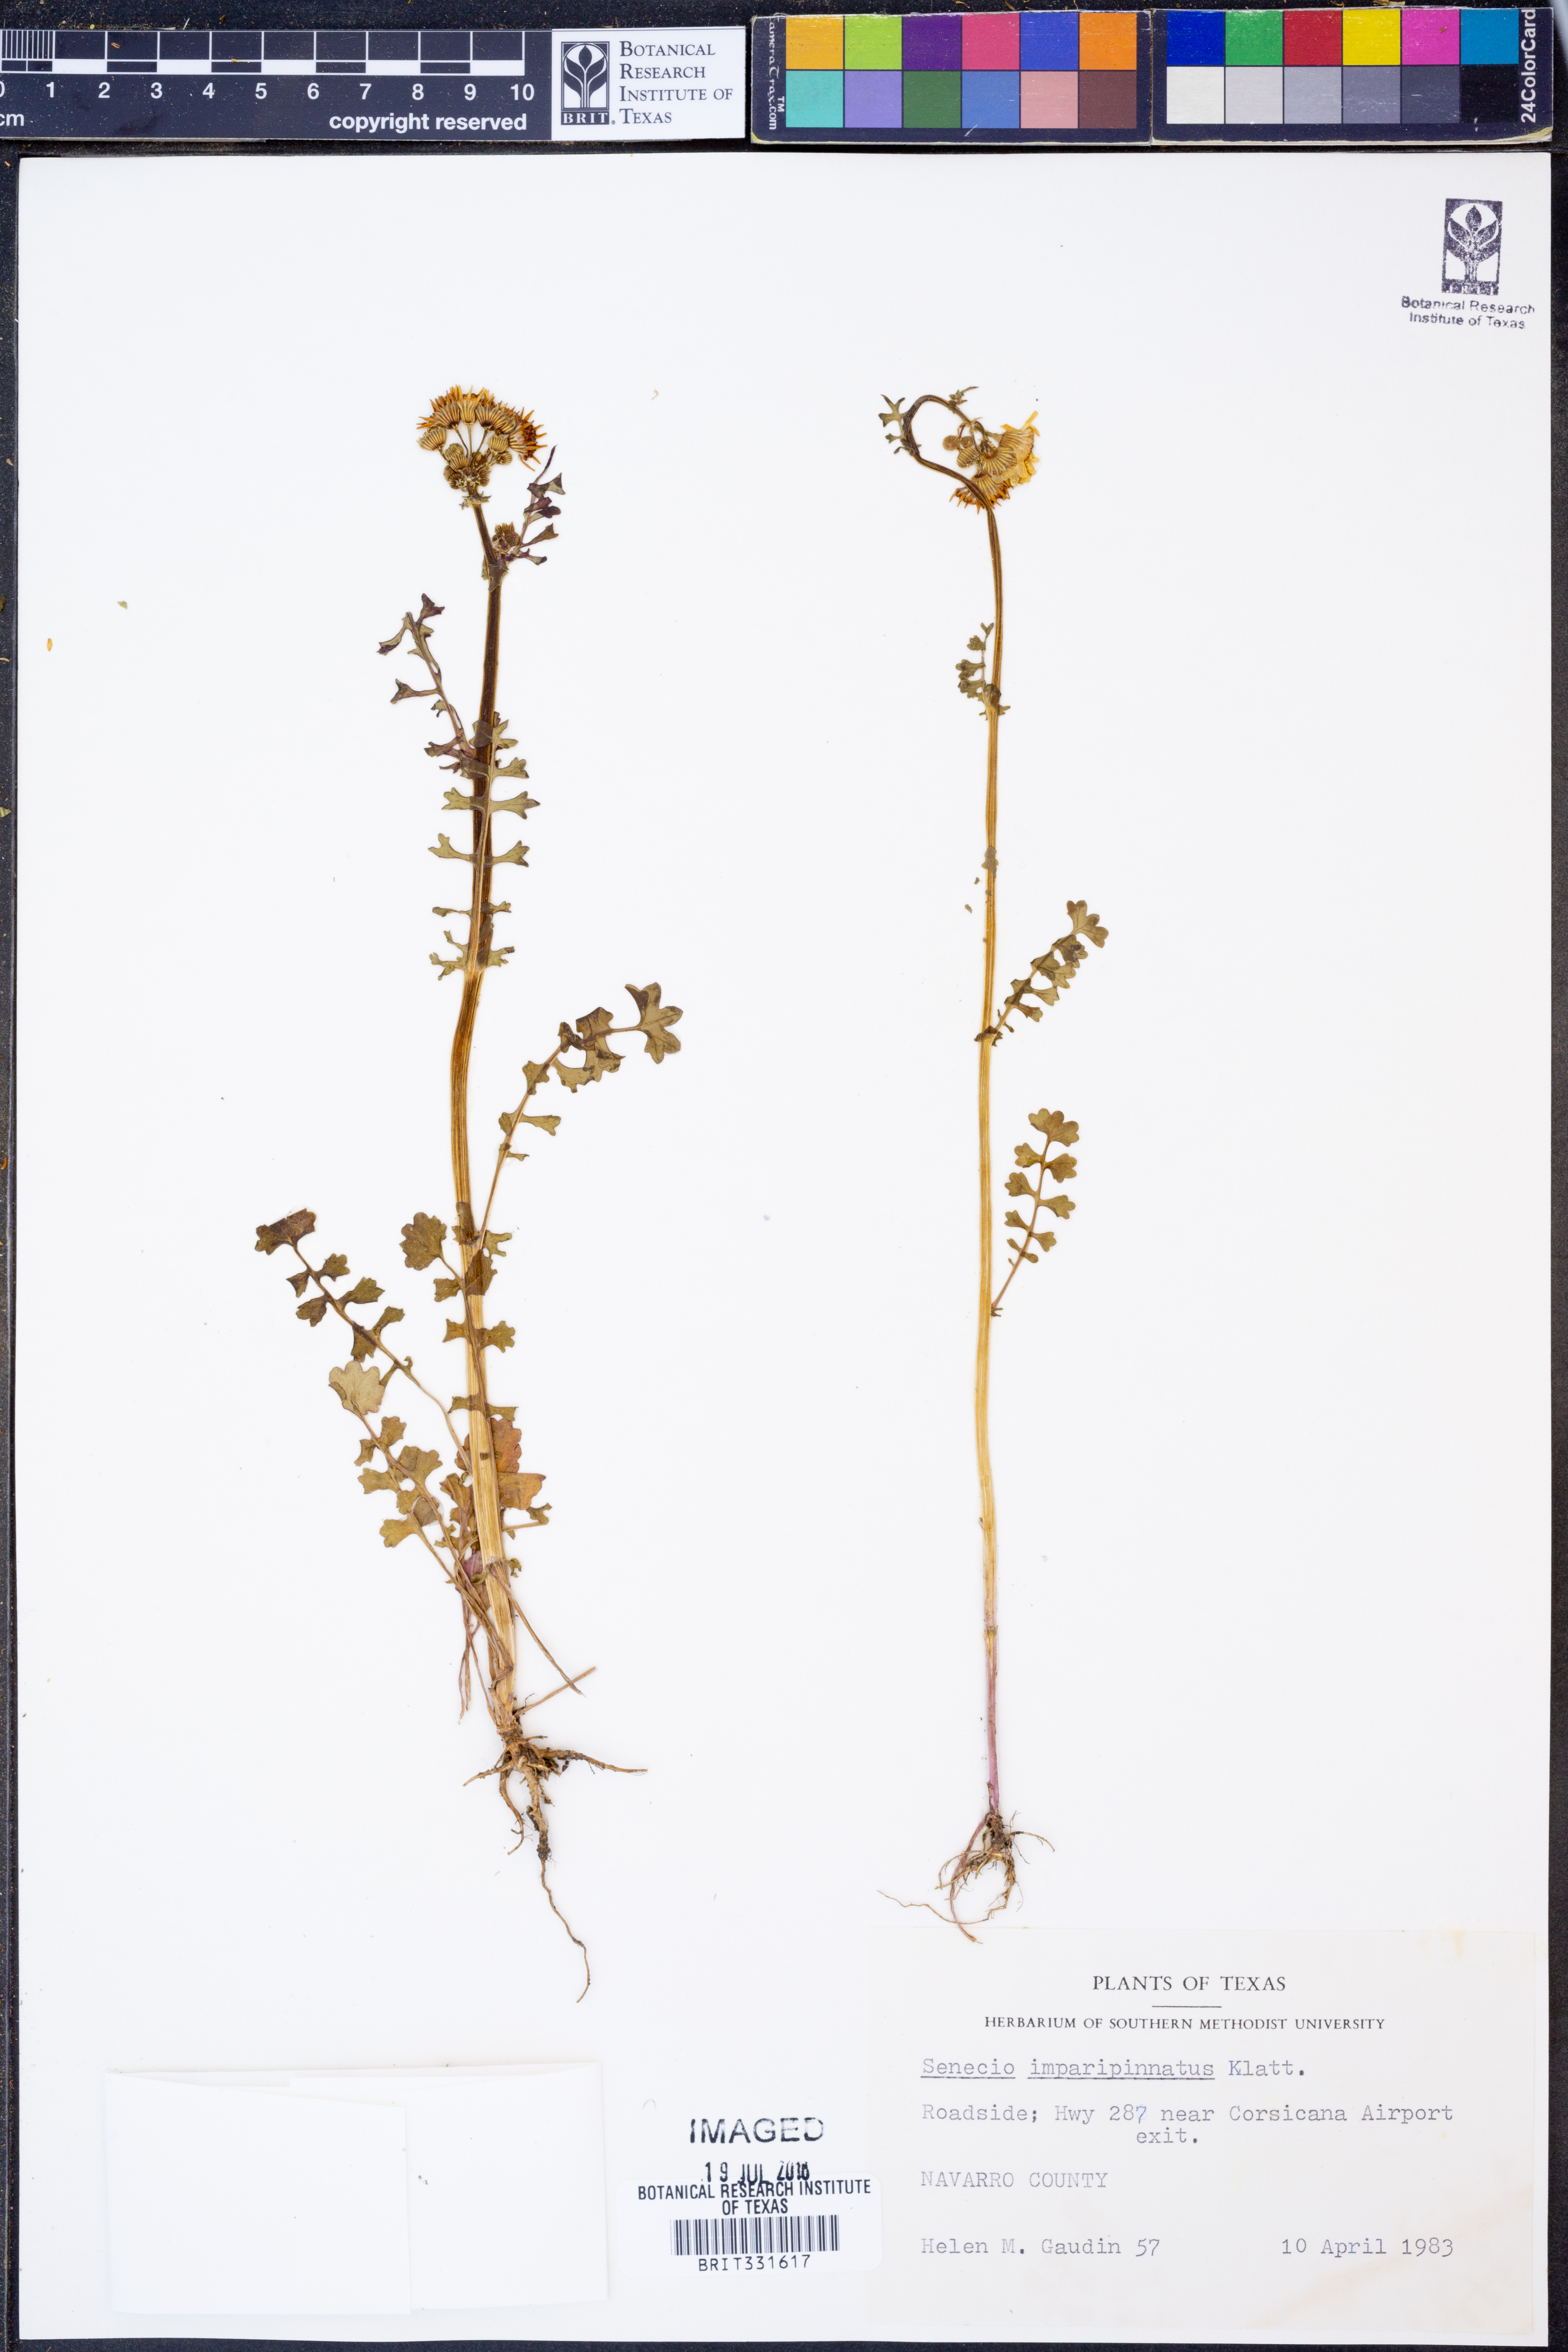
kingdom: Plantae
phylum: Tracheophyta
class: Magnoliopsida
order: Asterales
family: Asteraceae
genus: Packera
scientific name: Packera tampicana
